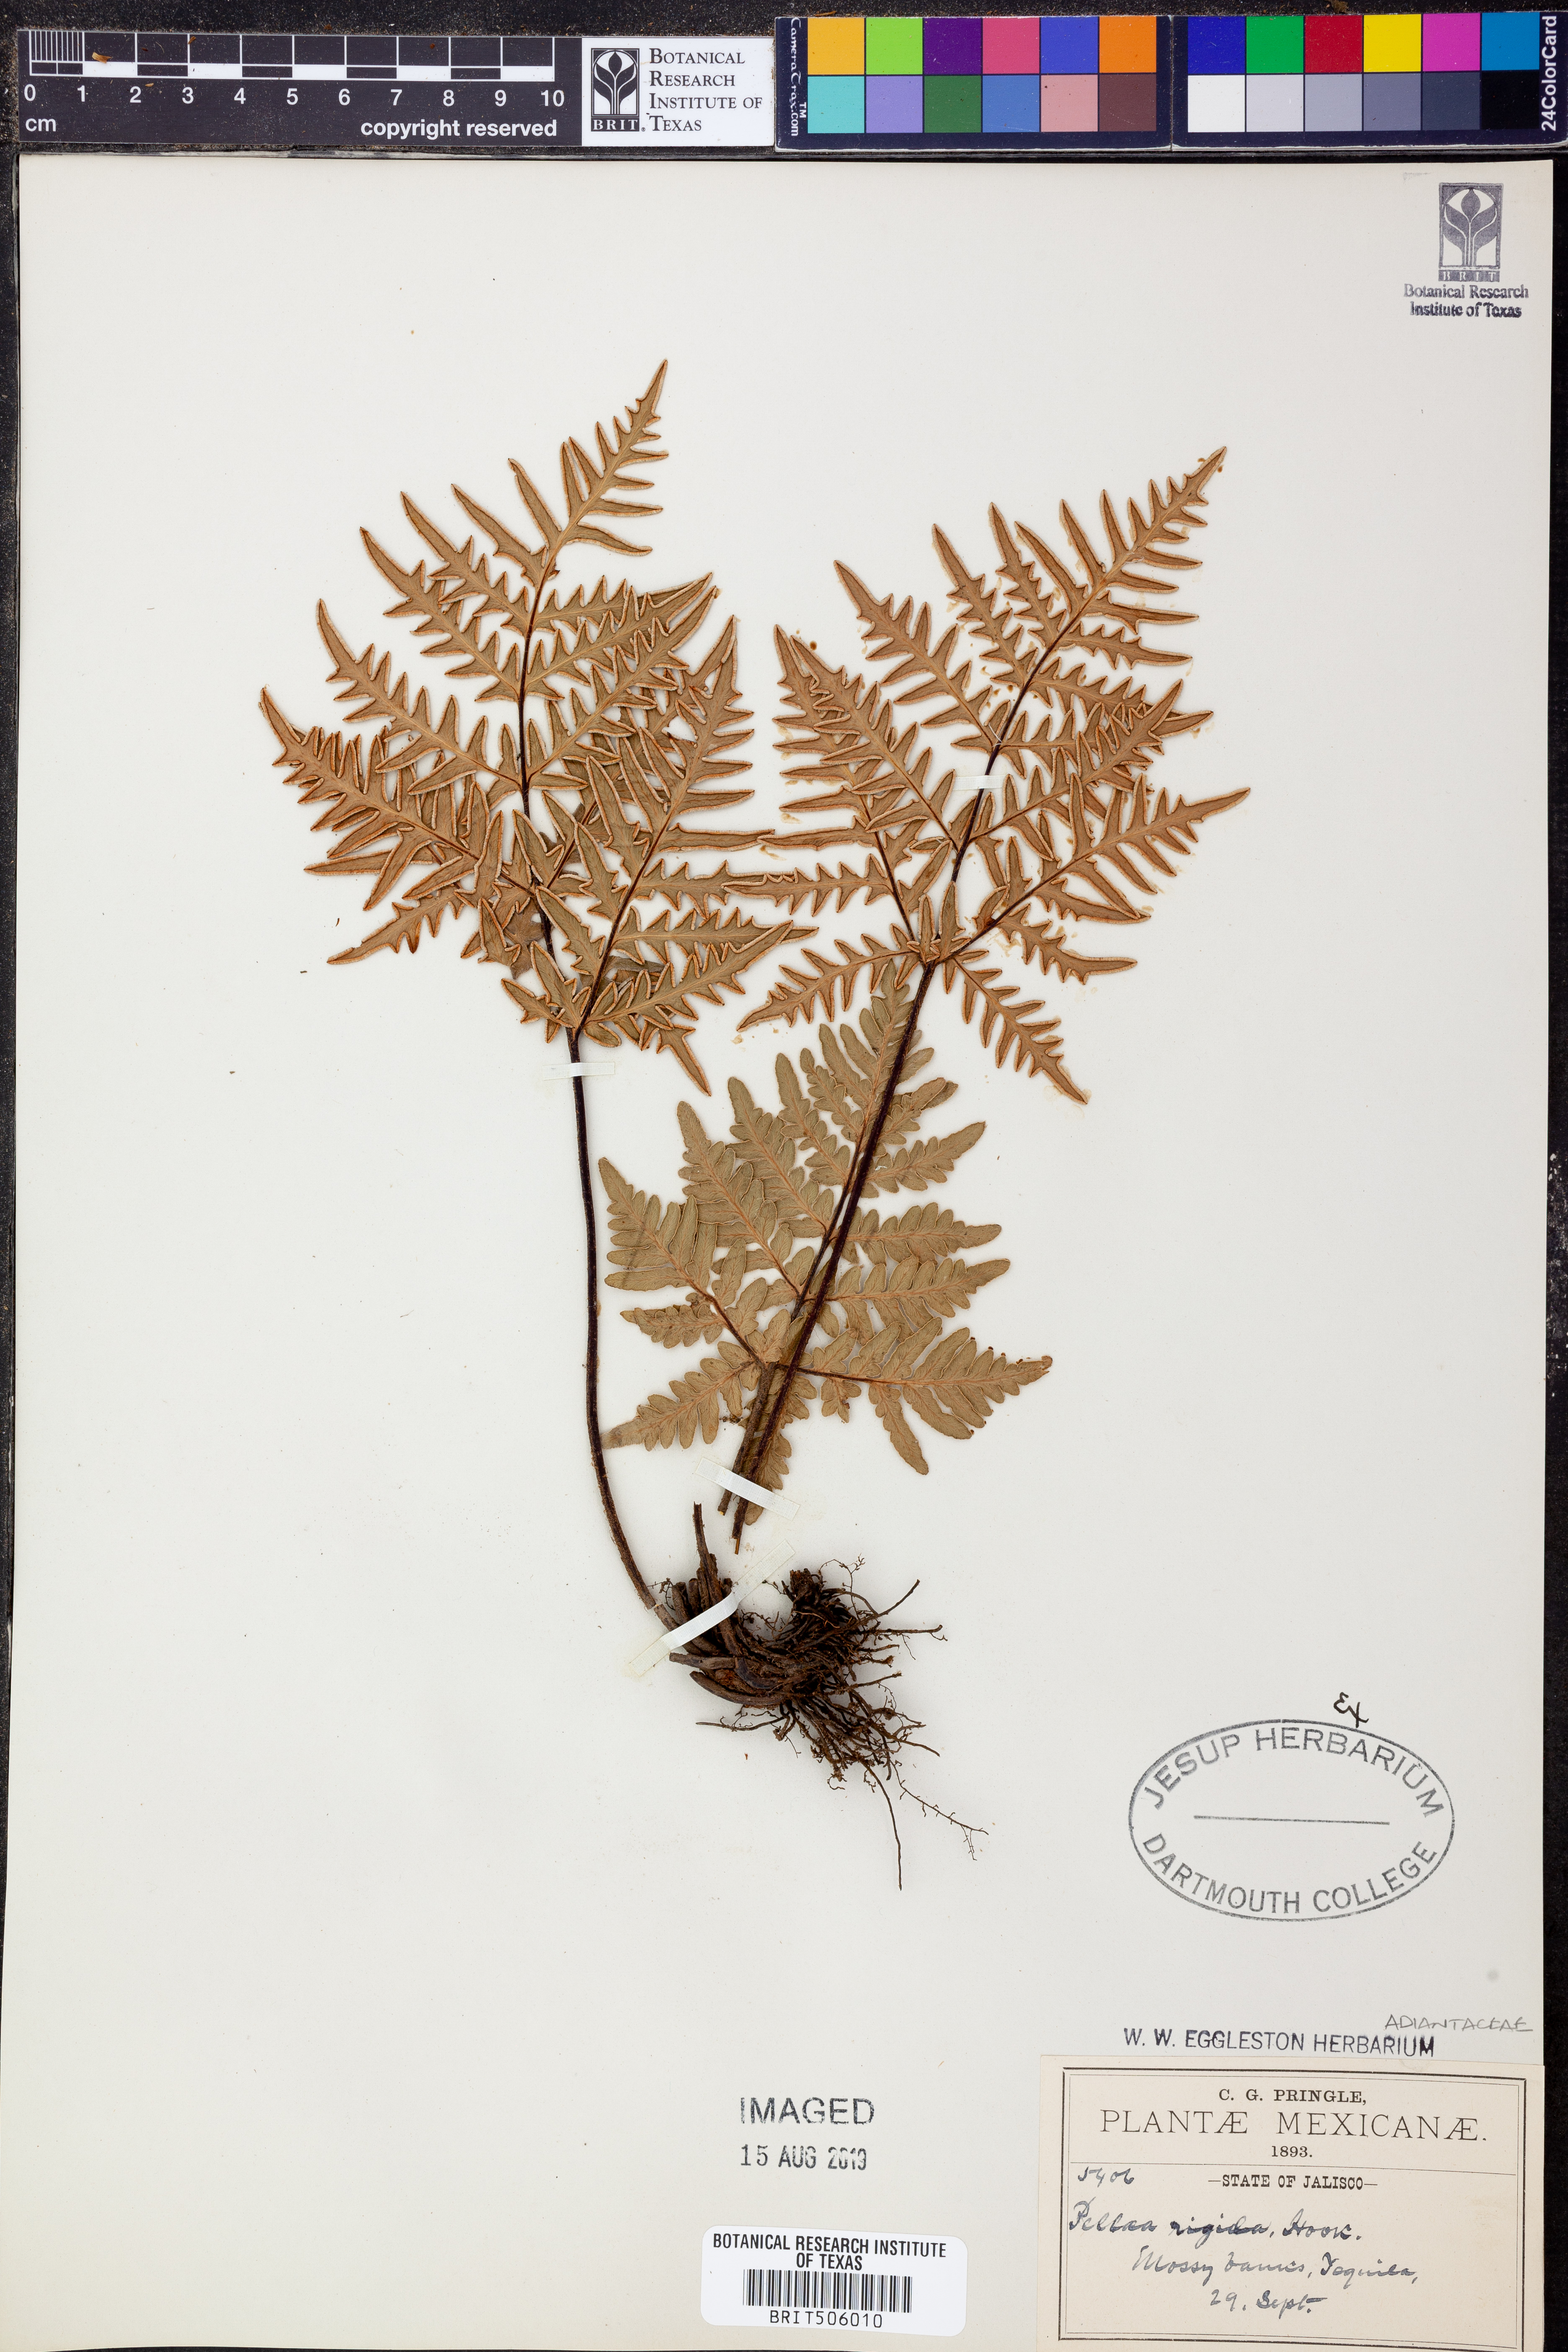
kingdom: Plantae
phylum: Tracheophyta
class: Polypodiopsida
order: Polypodiales
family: Pteridaceae
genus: Cheiloplecton
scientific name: Cheiloplecton rigidum
